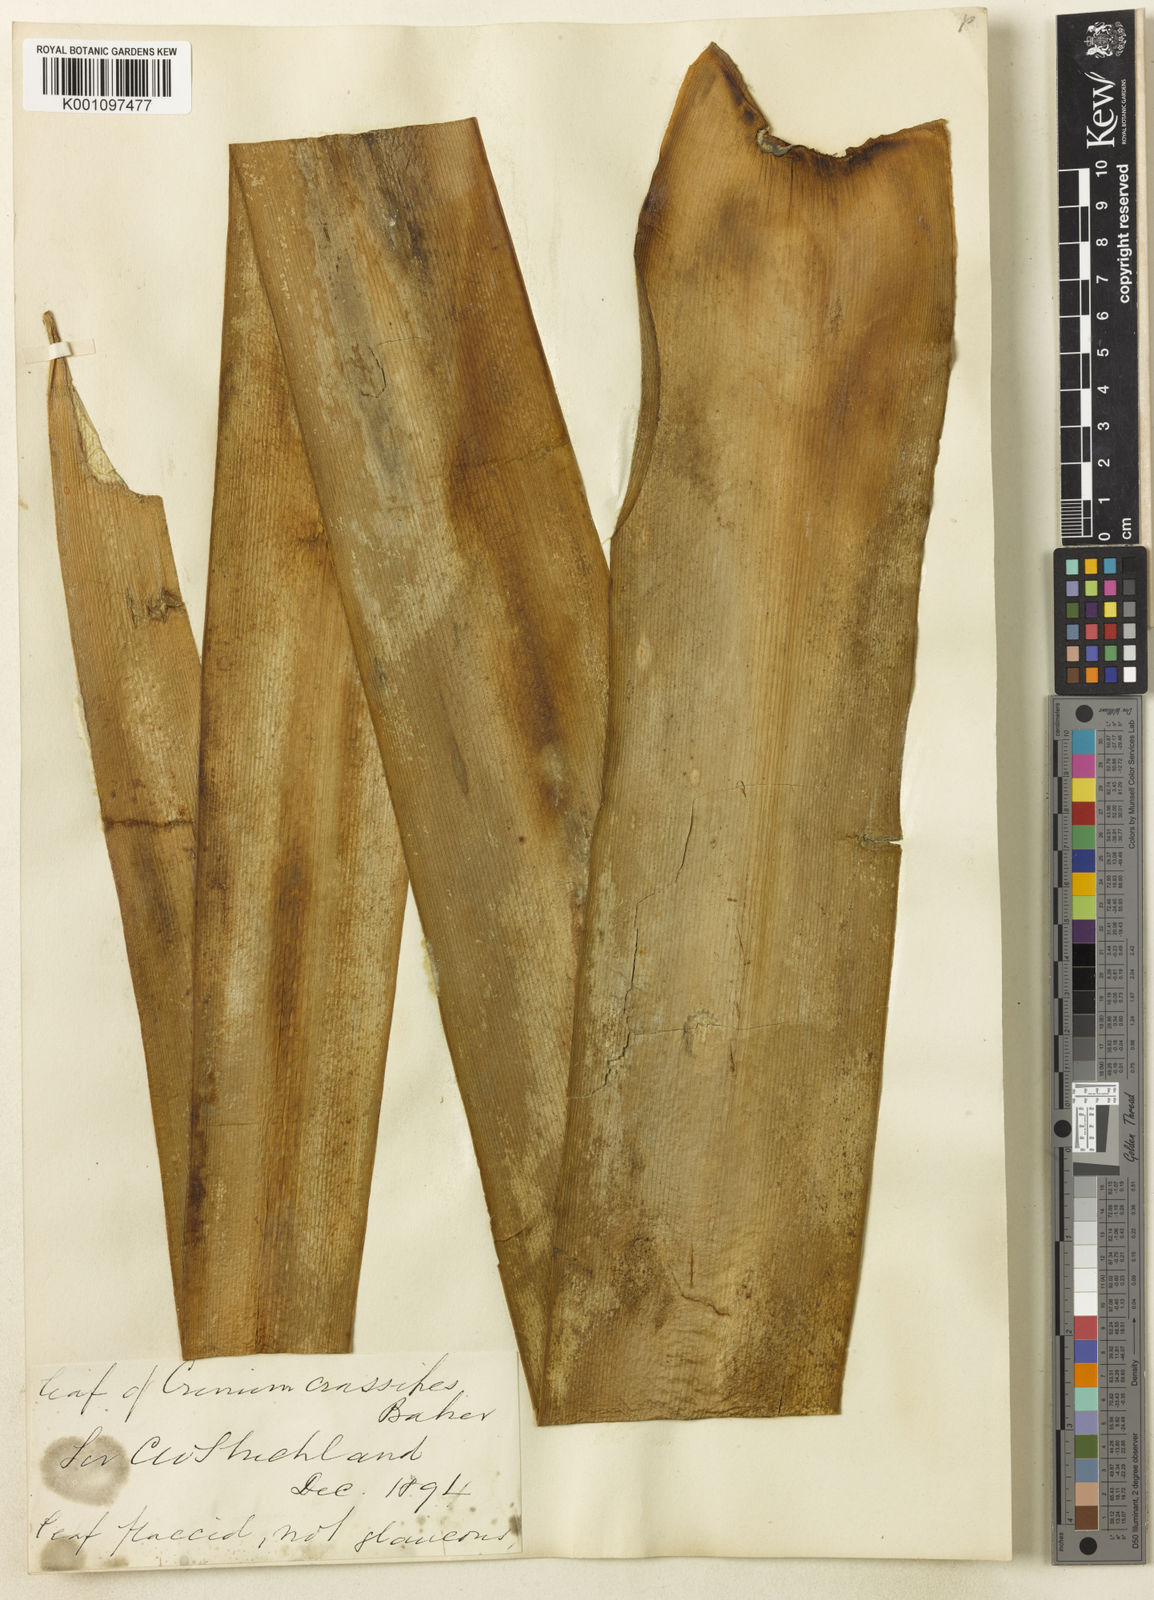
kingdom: Plantae
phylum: Tracheophyta
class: Liliopsida
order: Asparagales
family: Amaryllidaceae
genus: Crinum
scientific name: Crinum variabile
